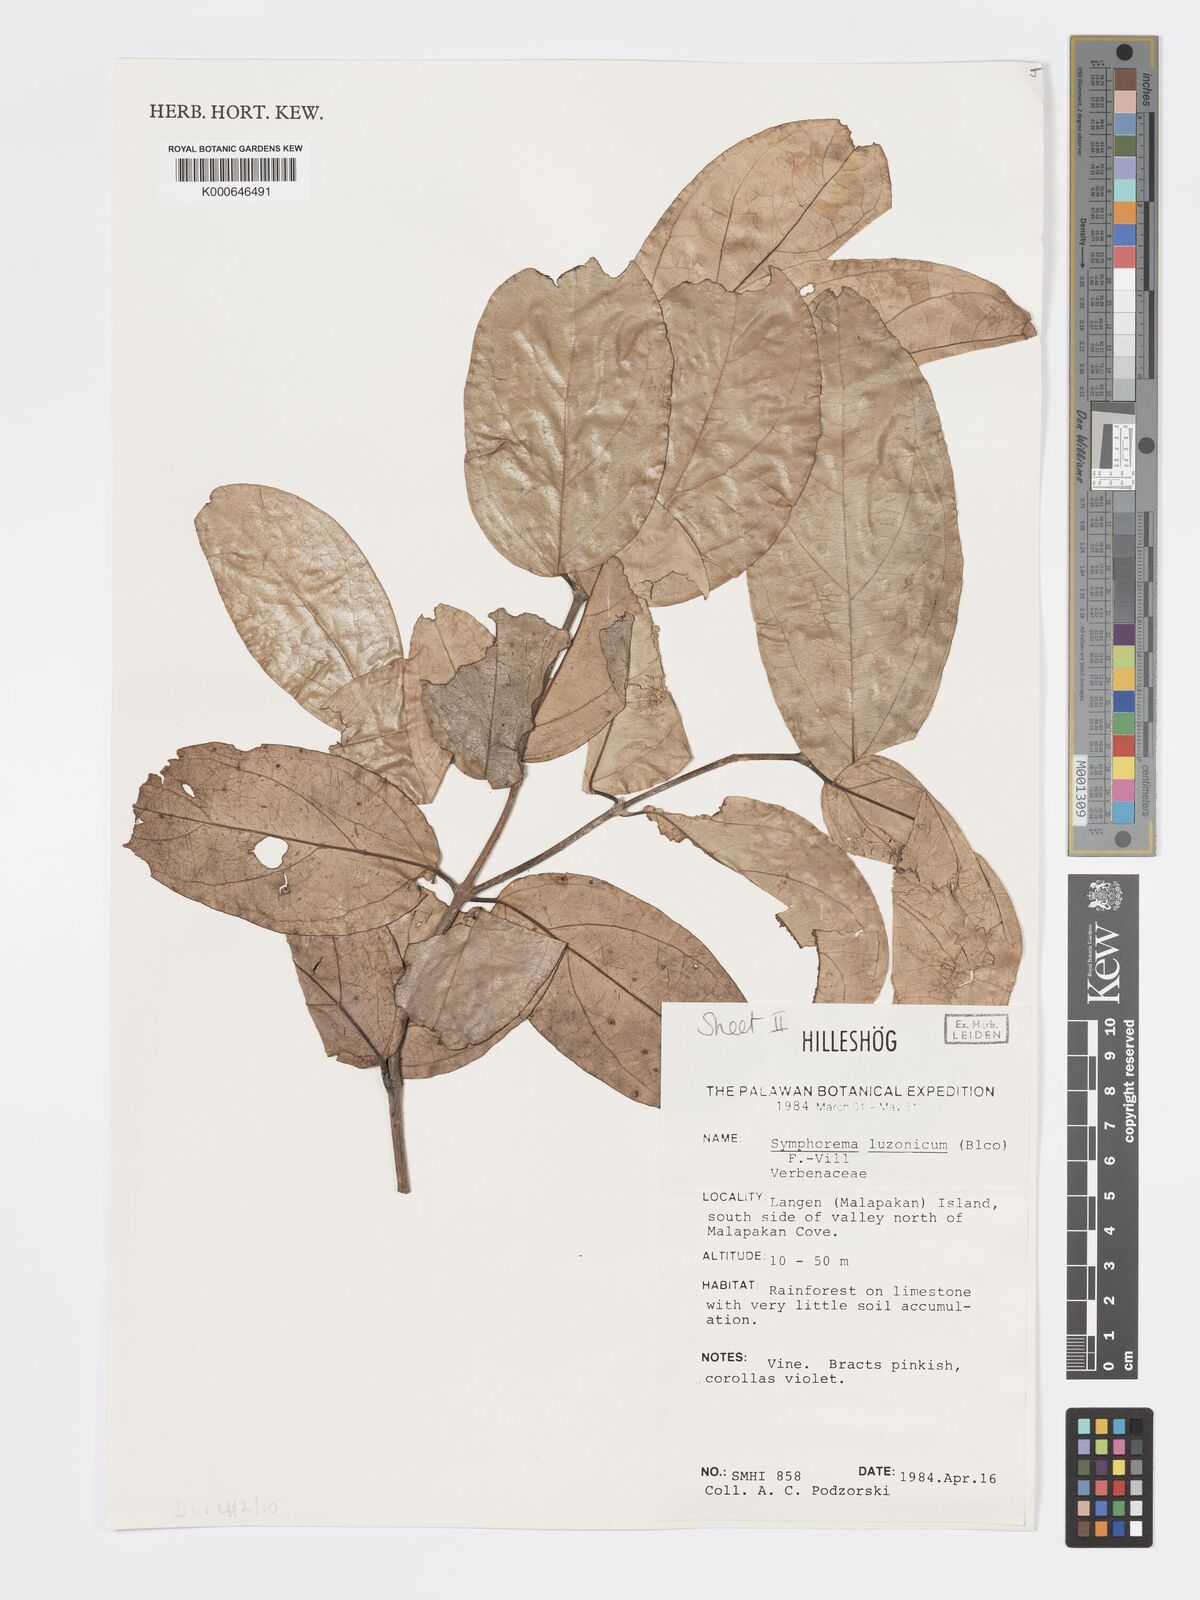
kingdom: Plantae
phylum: Tracheophyta
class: Magnoliopsida
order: Lamiales
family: Lamiaceae
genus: Symphorema
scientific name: Symphorema luzonicum
